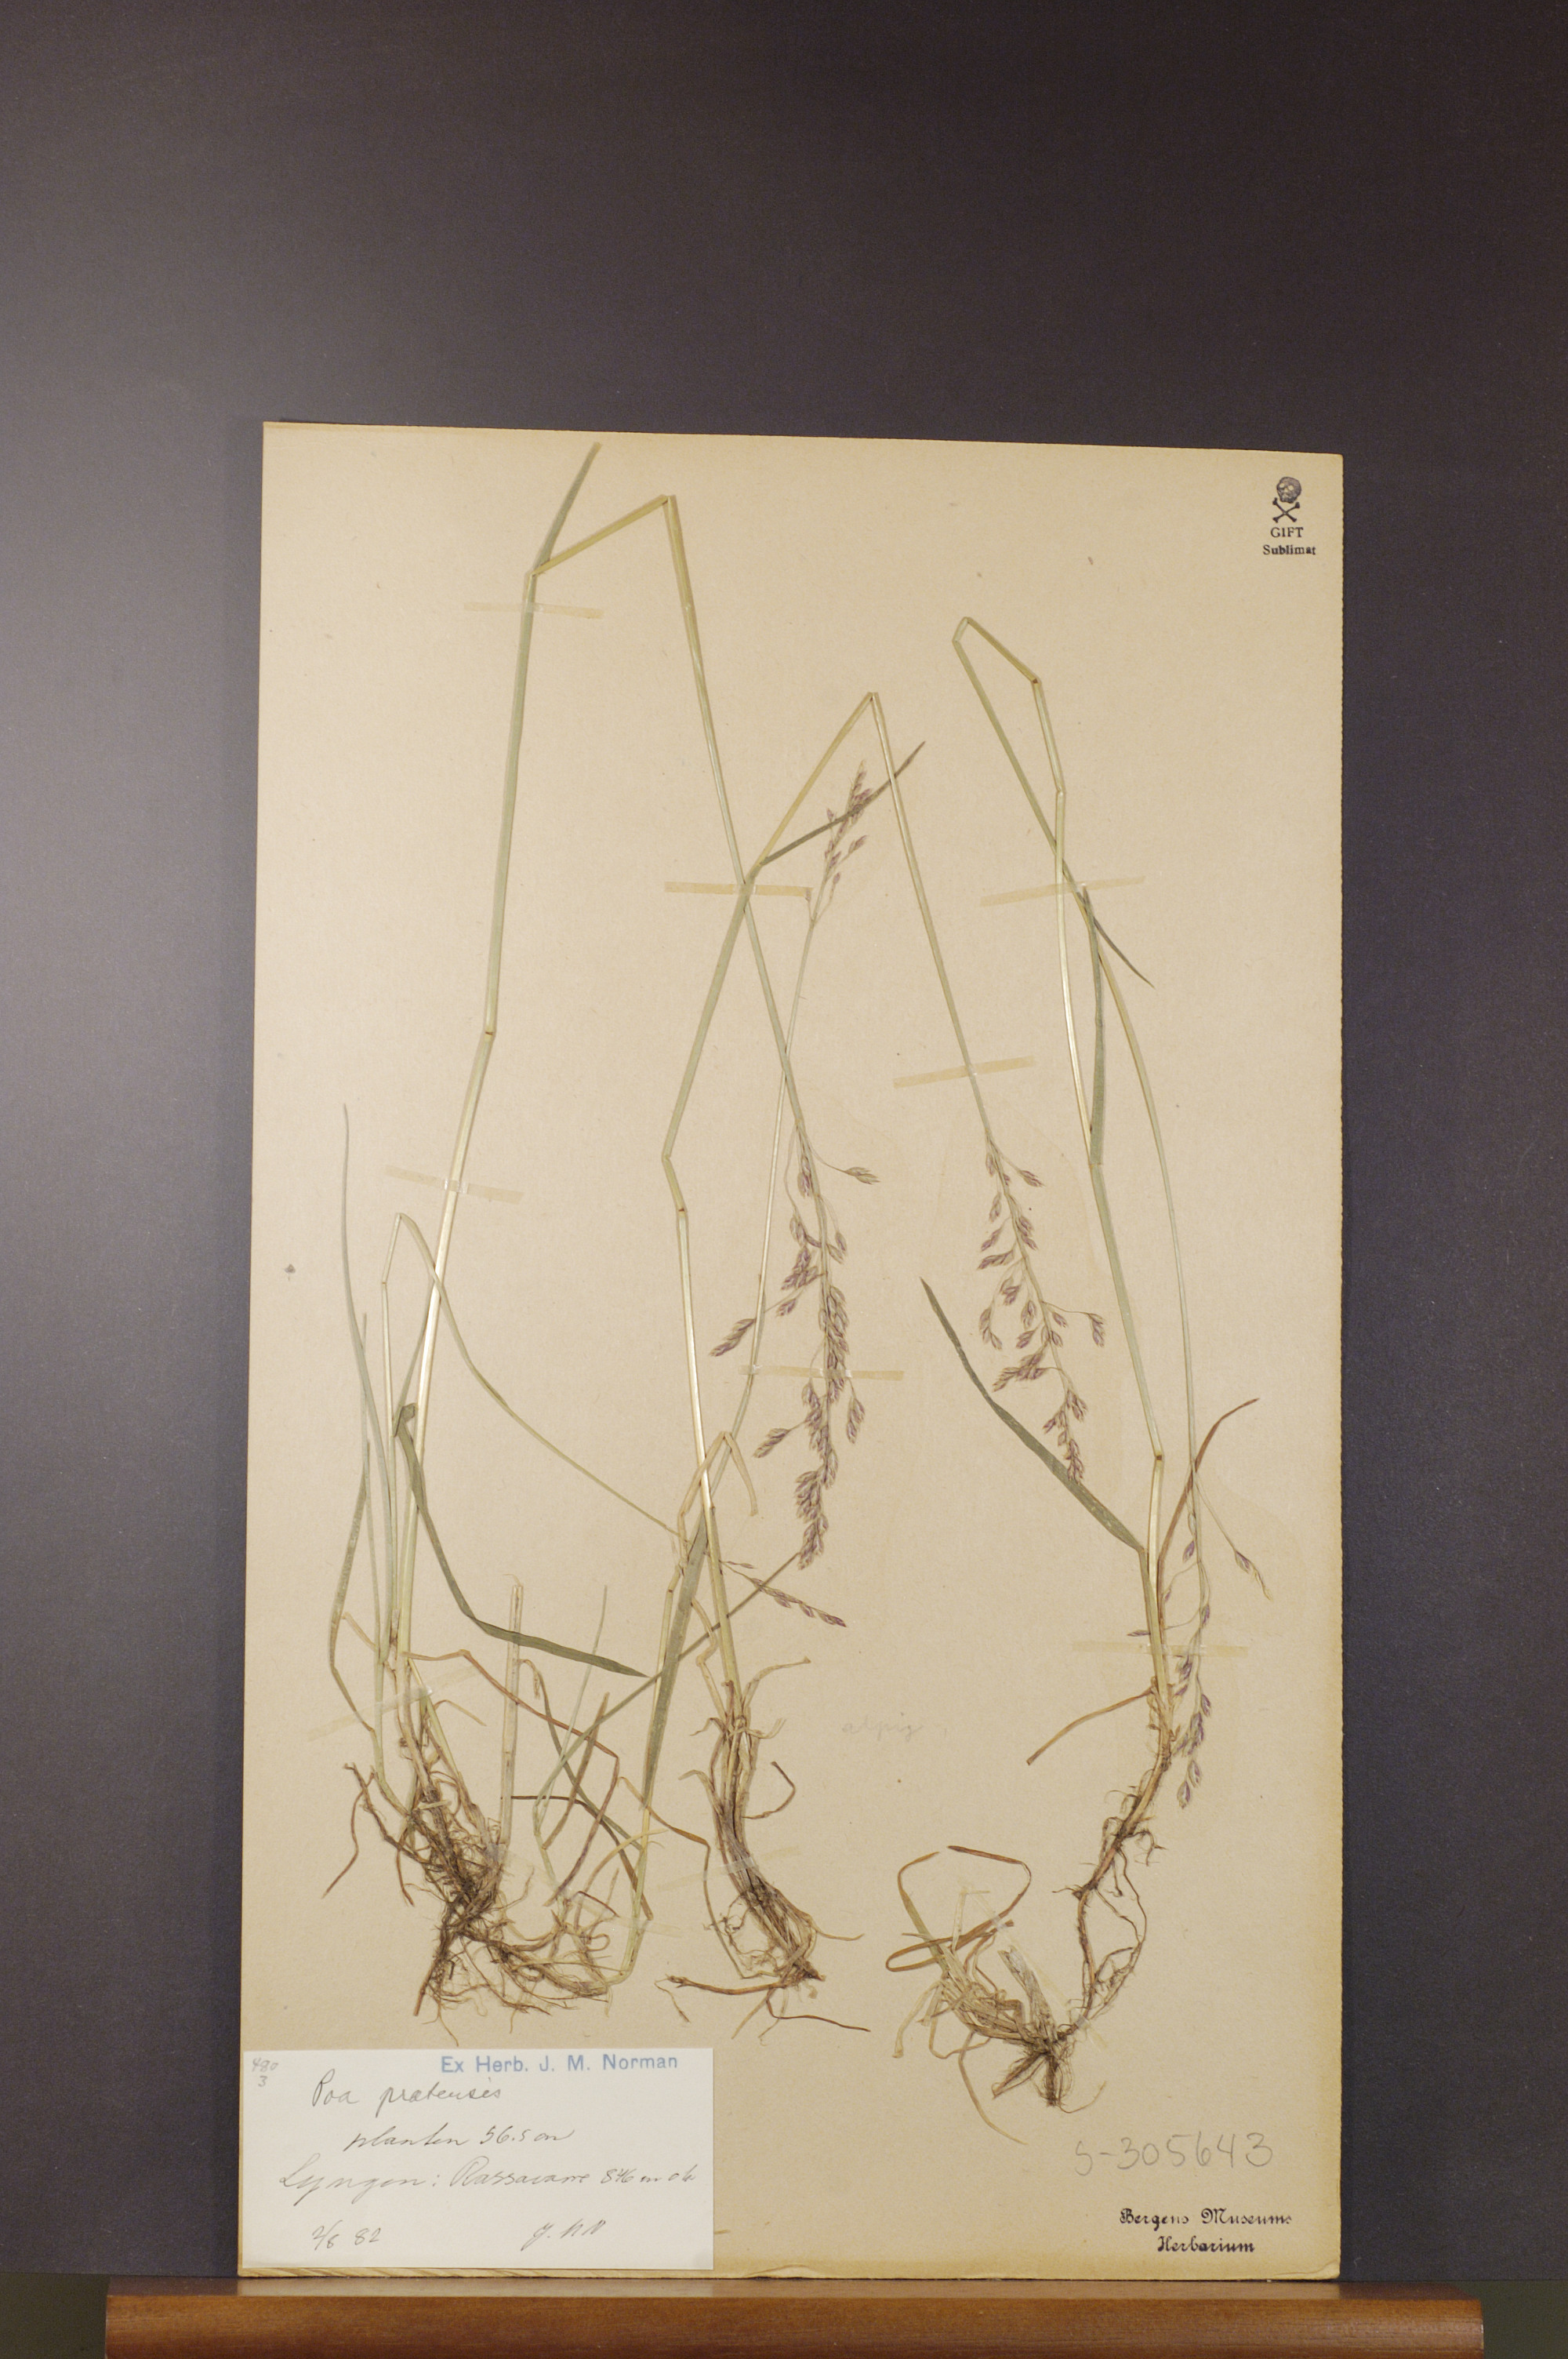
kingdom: Plantae
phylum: Tracheophyta
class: Liliopsida
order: Poales
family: Poaceae
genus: Poa
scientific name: Poa pratensis
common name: Kentucky bluegrass
